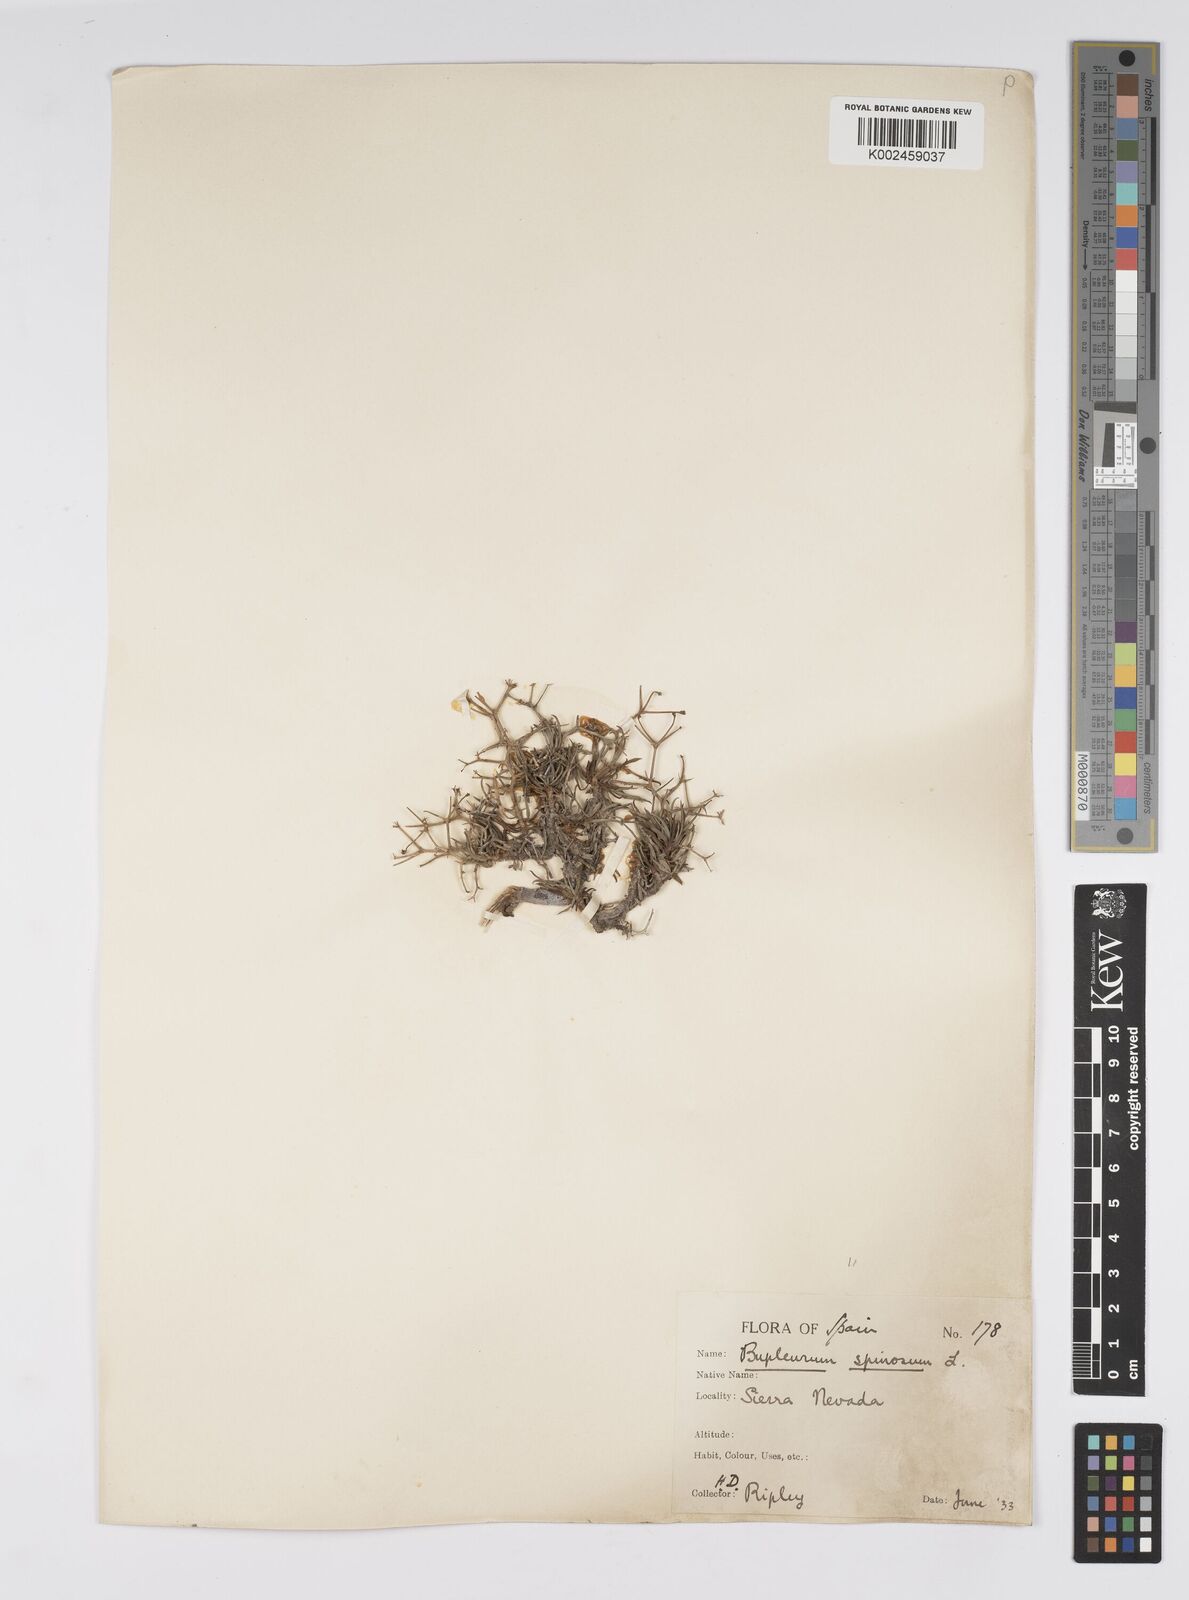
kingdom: Plantae
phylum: Tracheophyta
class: Magnoliopsida
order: Apiales
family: Apiaceae
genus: Bupleurum
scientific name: Bupleurum fruticescens
